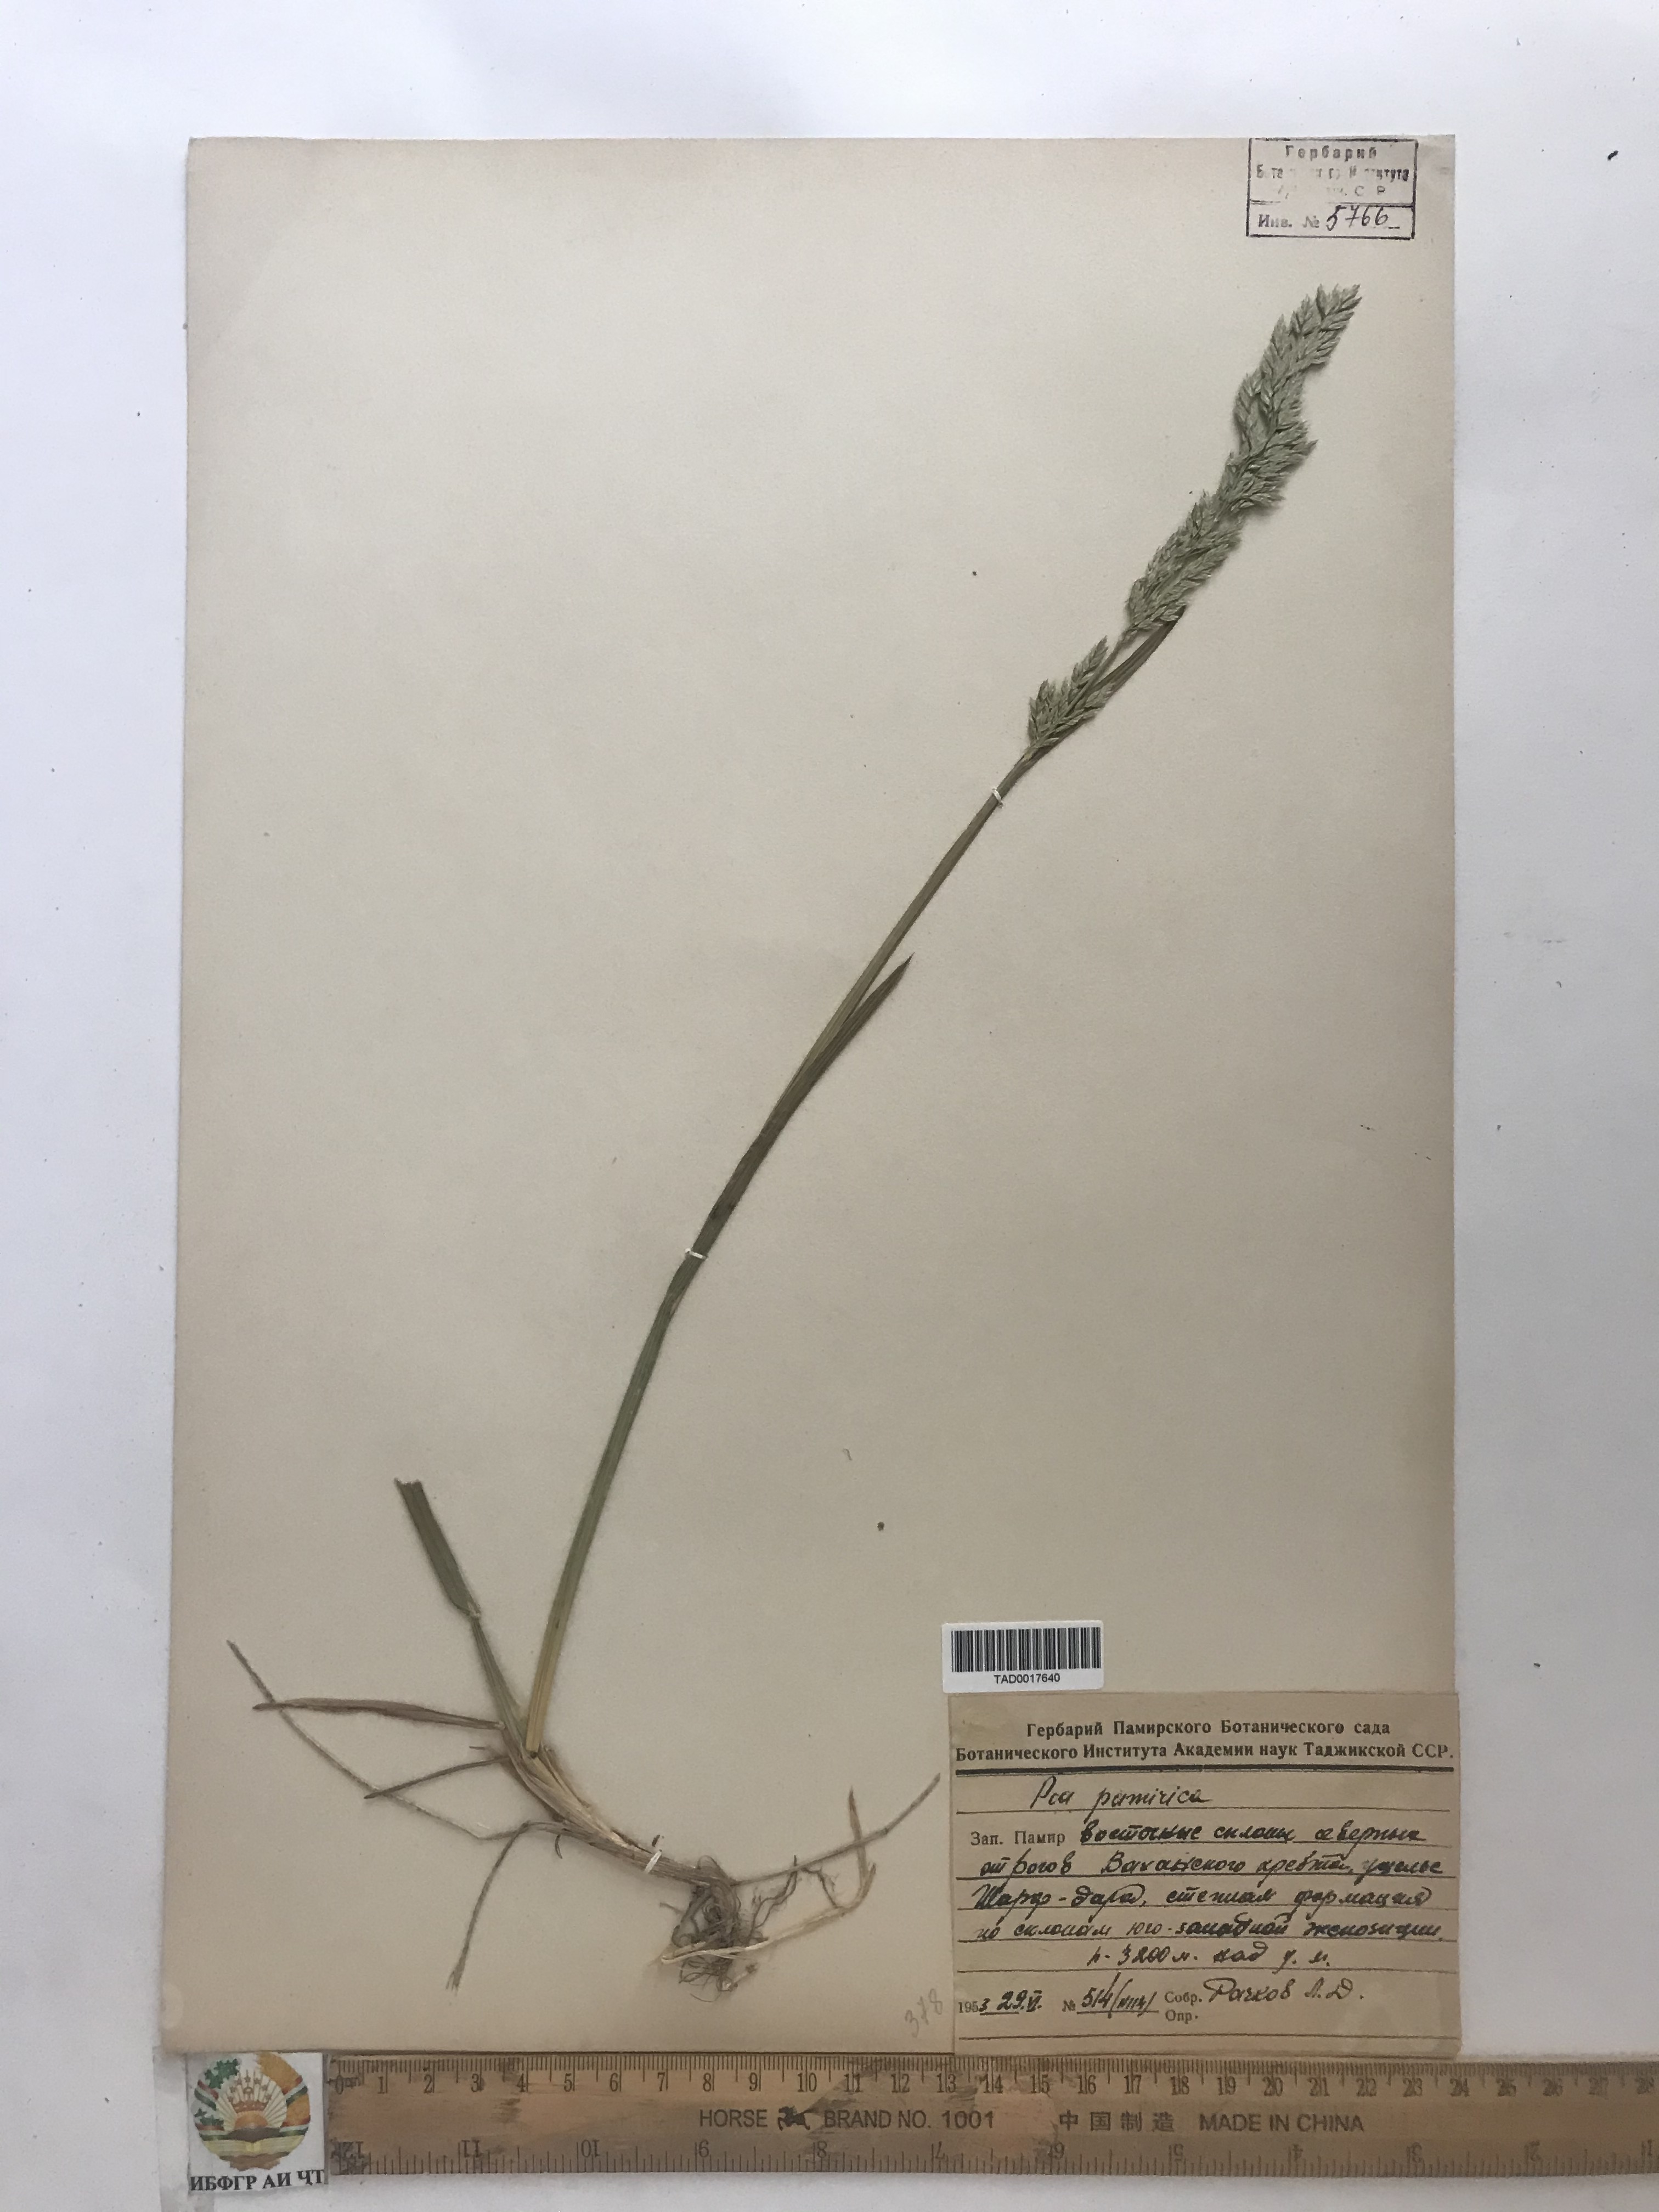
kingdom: Plantae
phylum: Tracheophyta
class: Liliopsida
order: Poales
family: Poaceae
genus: Poa
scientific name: Poa tianschanica
